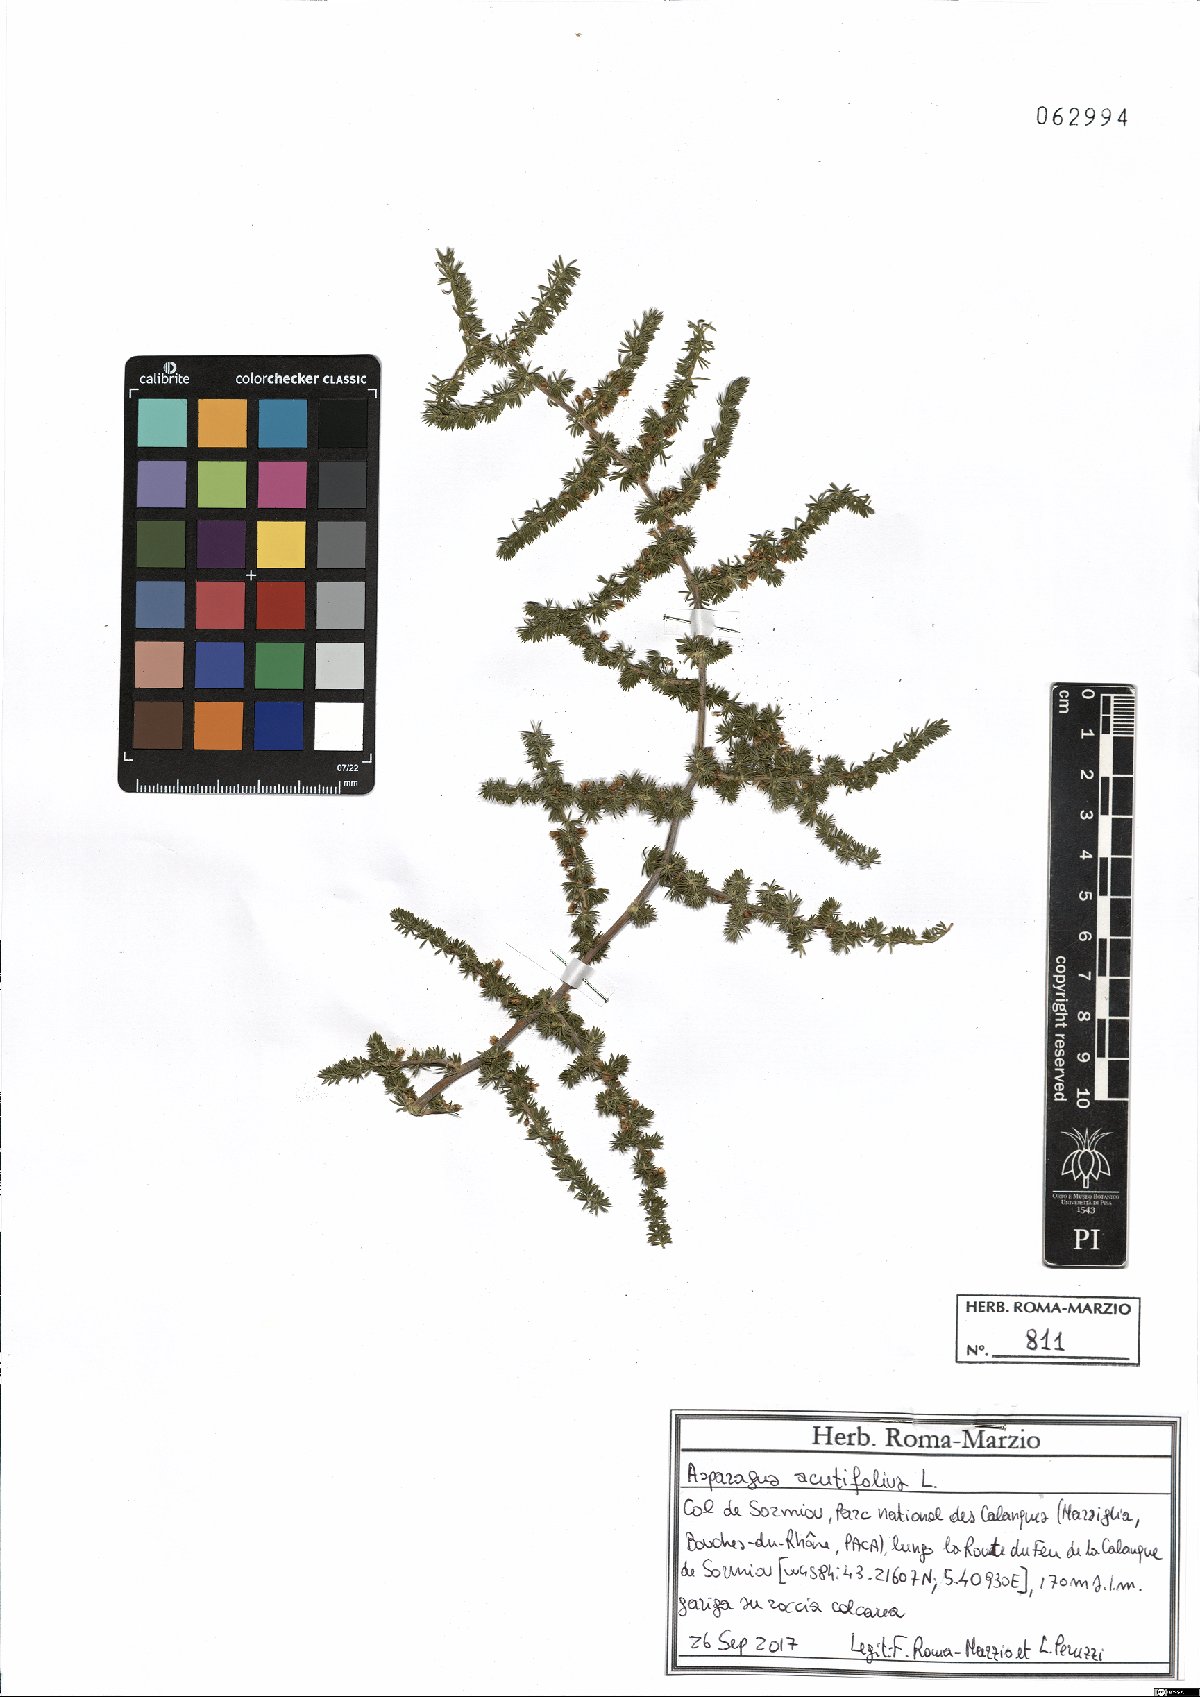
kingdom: Plantae
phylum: Tracheophyta
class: Liliopsida
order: Asparagales
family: Asparagaceae
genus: Asparagus
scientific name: Asparagus acutifolius
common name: Wild asparagus
